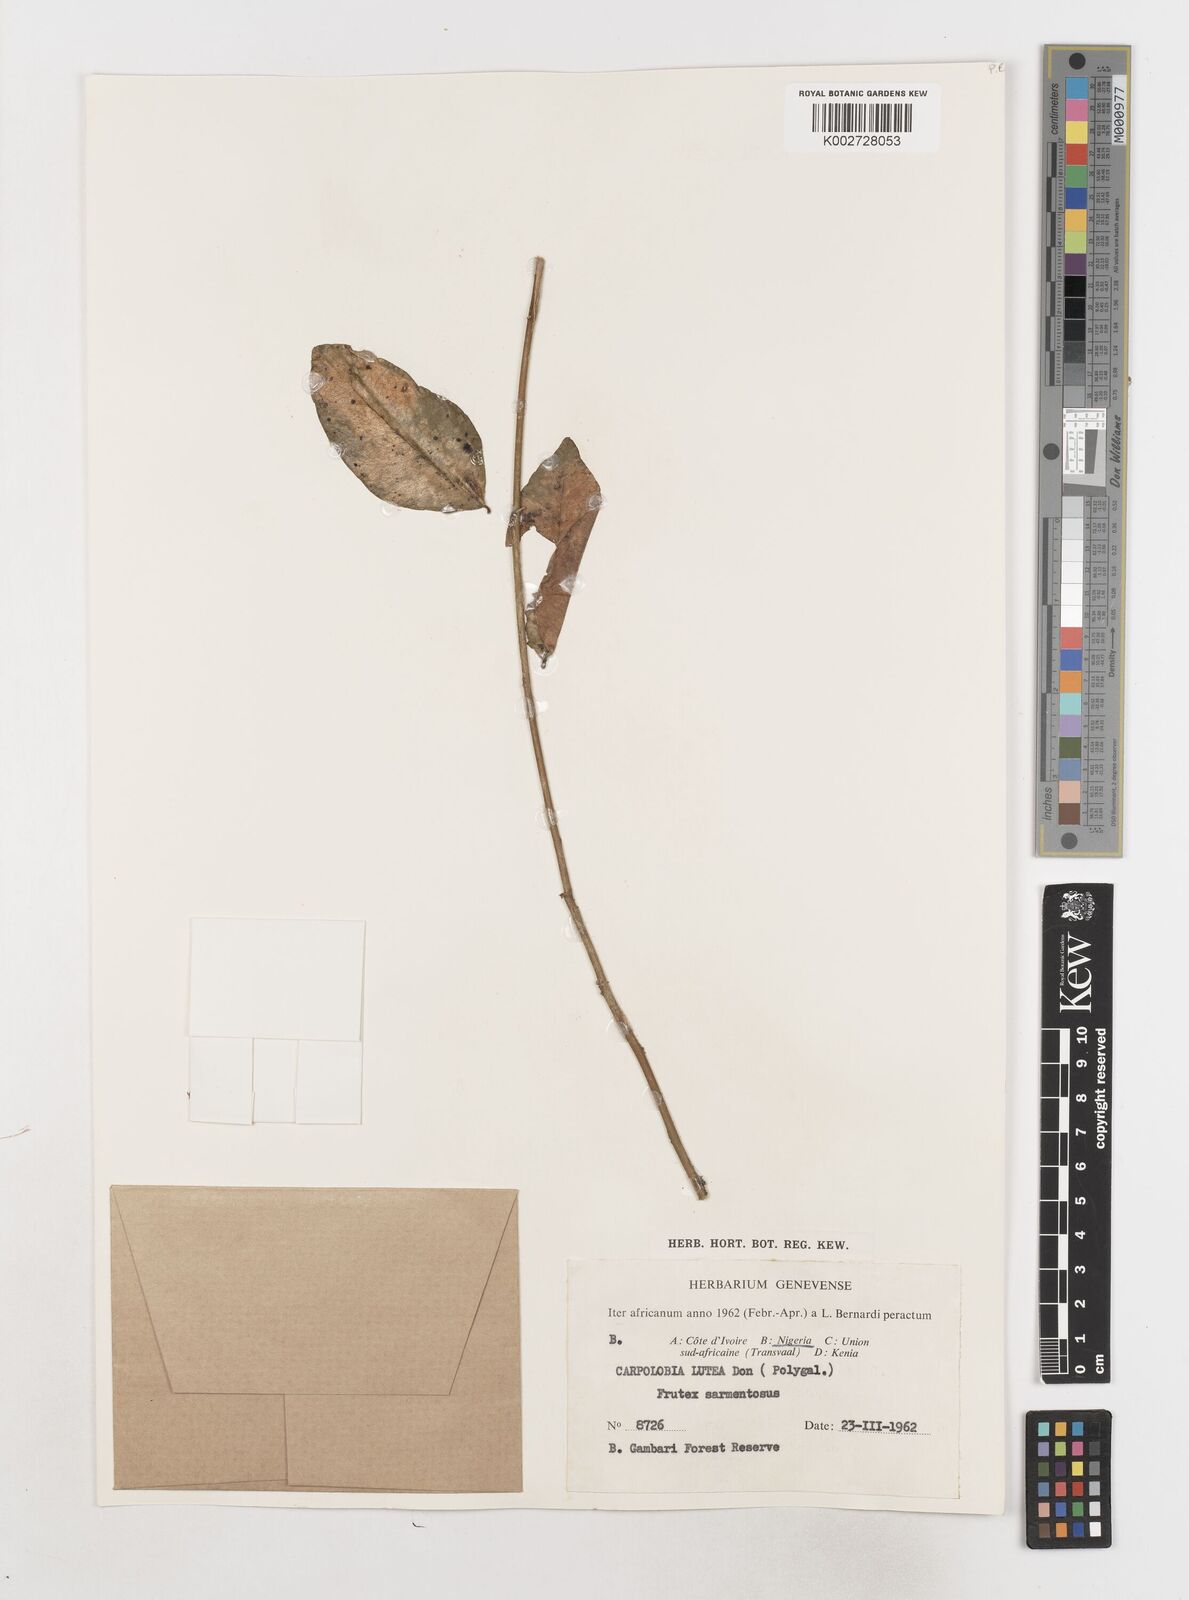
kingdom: Plantae
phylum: Tracheophyta
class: Magnoliopsida
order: Fabales
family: Polygalaceae
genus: Carpolobia
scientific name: Carpolobia lutea
